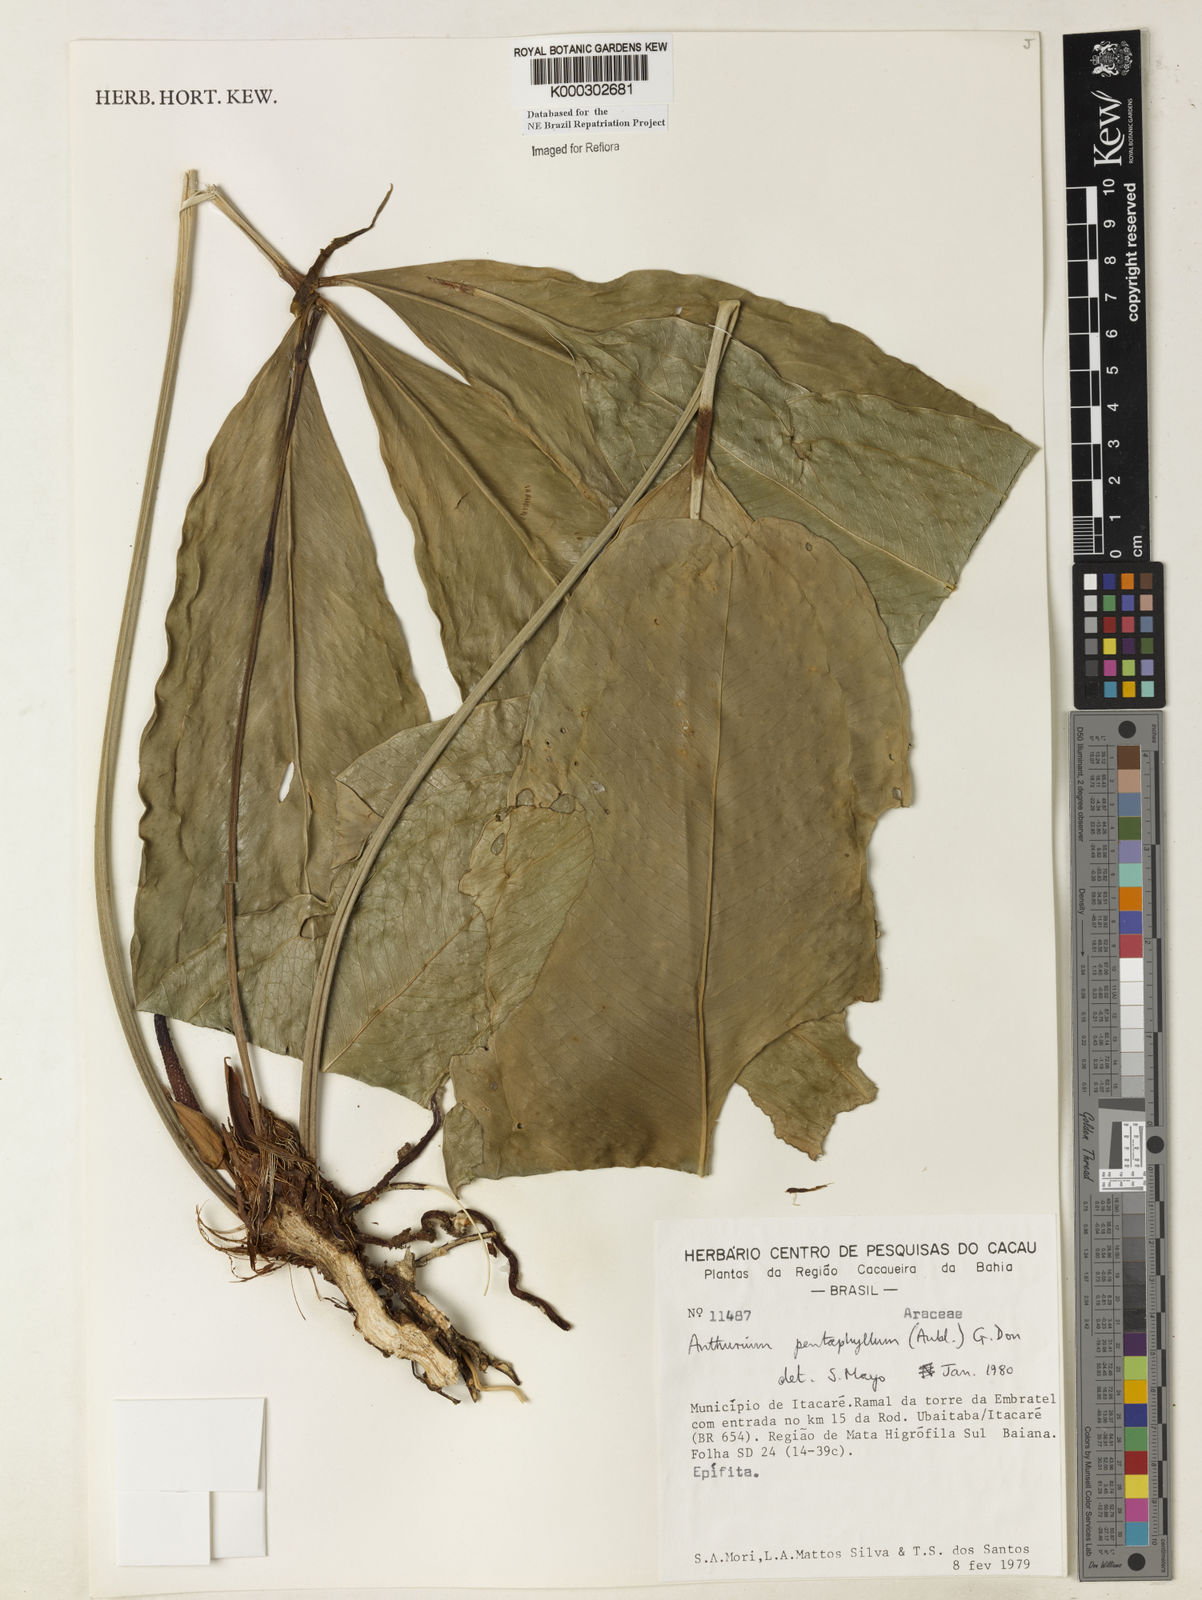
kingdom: Plantae
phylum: Tracheophyta
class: Liliopsida
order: Alismatales
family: Araceae
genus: Anthurium
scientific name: Anthurium pentaphyllum
